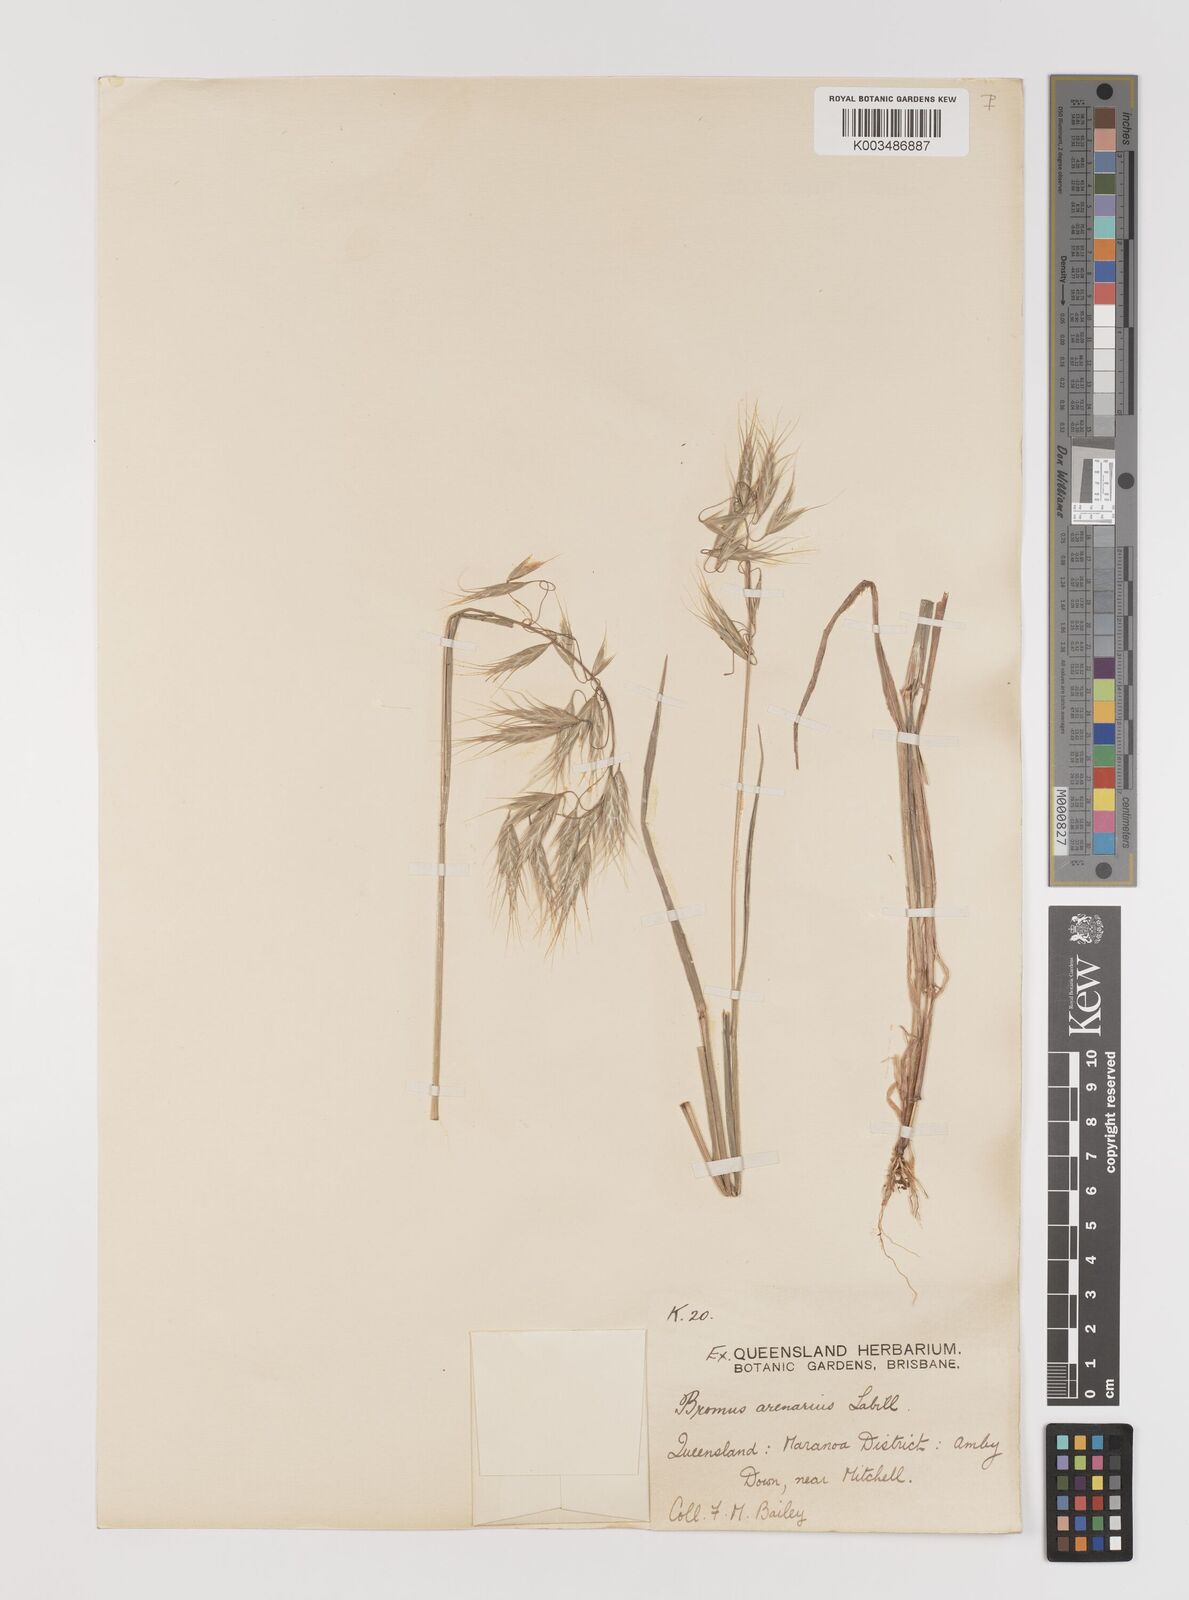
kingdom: Plantae
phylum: Tracheophyta
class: Liliopsida
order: Poales
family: Poaceae
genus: Bromus
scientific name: Bromus arenarius
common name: Australian brome
